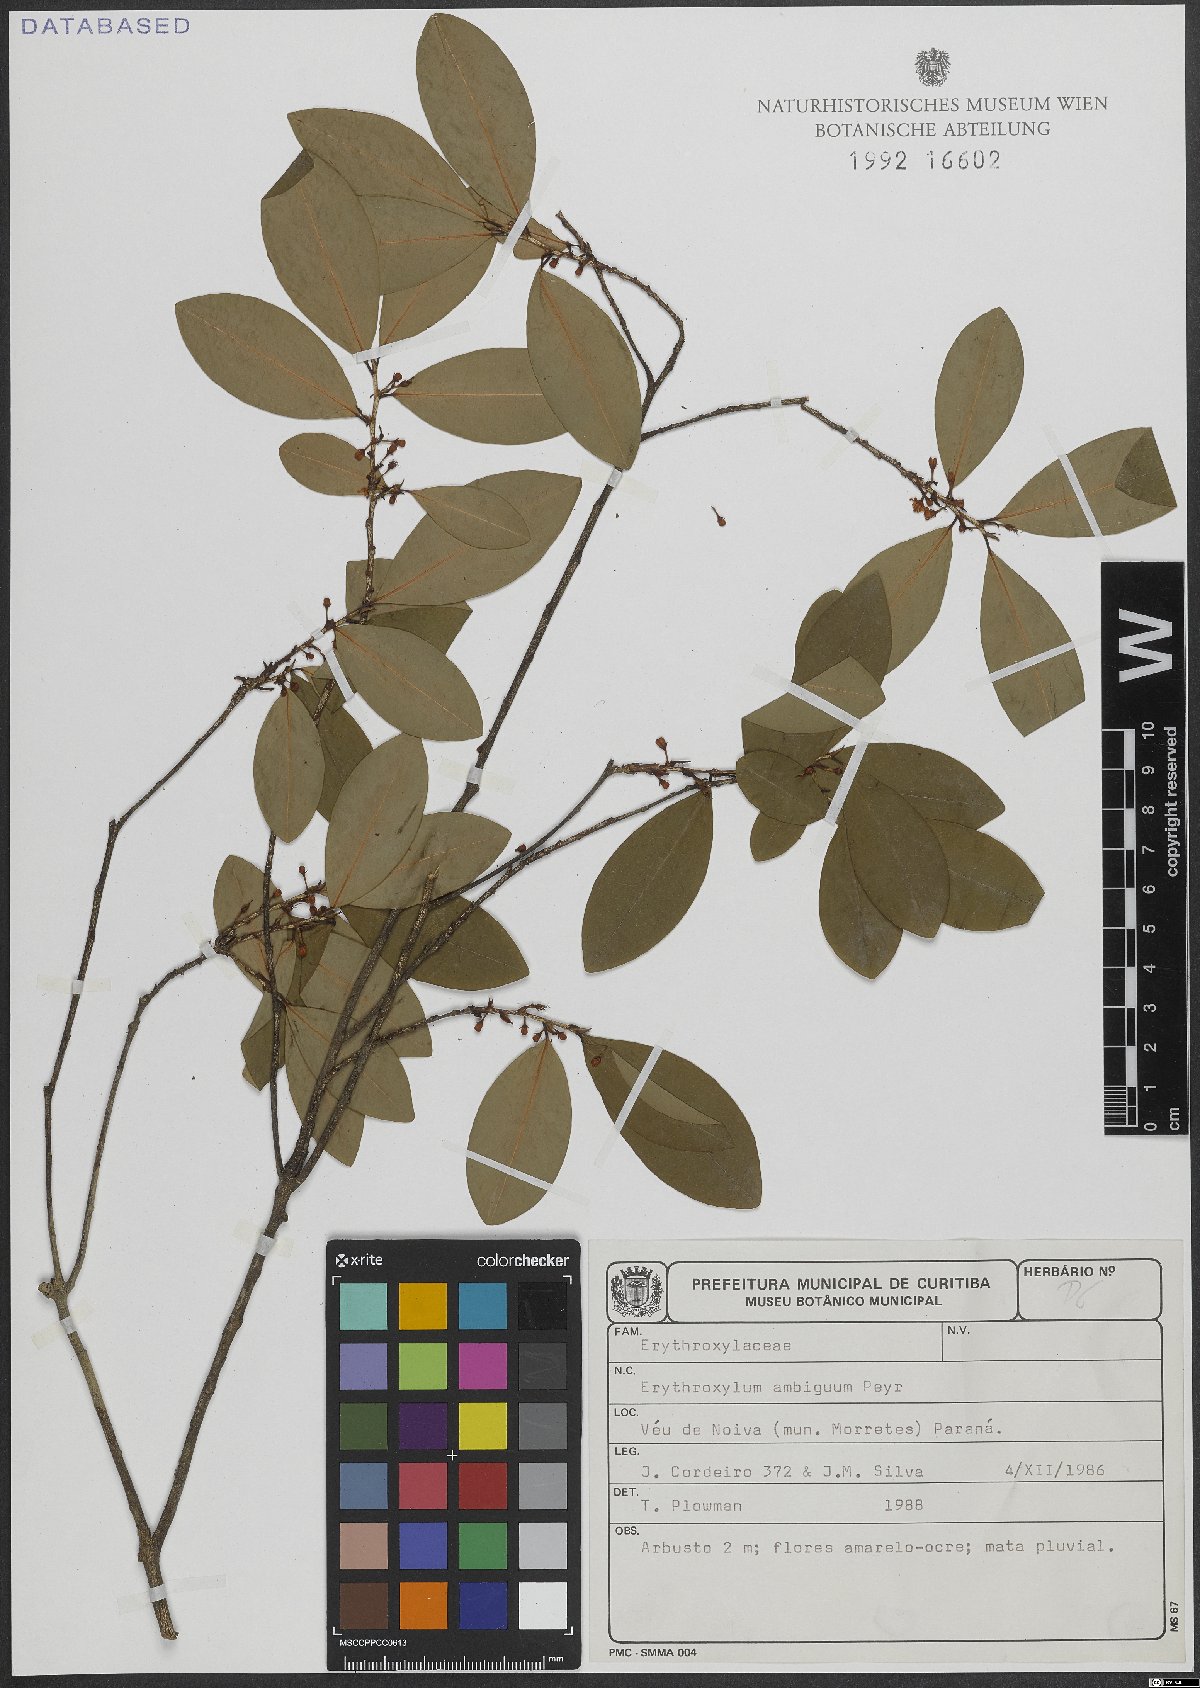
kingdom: Plantae
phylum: Tracheophyta
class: Magnoliopsida
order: Malpighiales
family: Erythroxylaceae
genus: Erythroxylum
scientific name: Erythroxylum ambiguum
